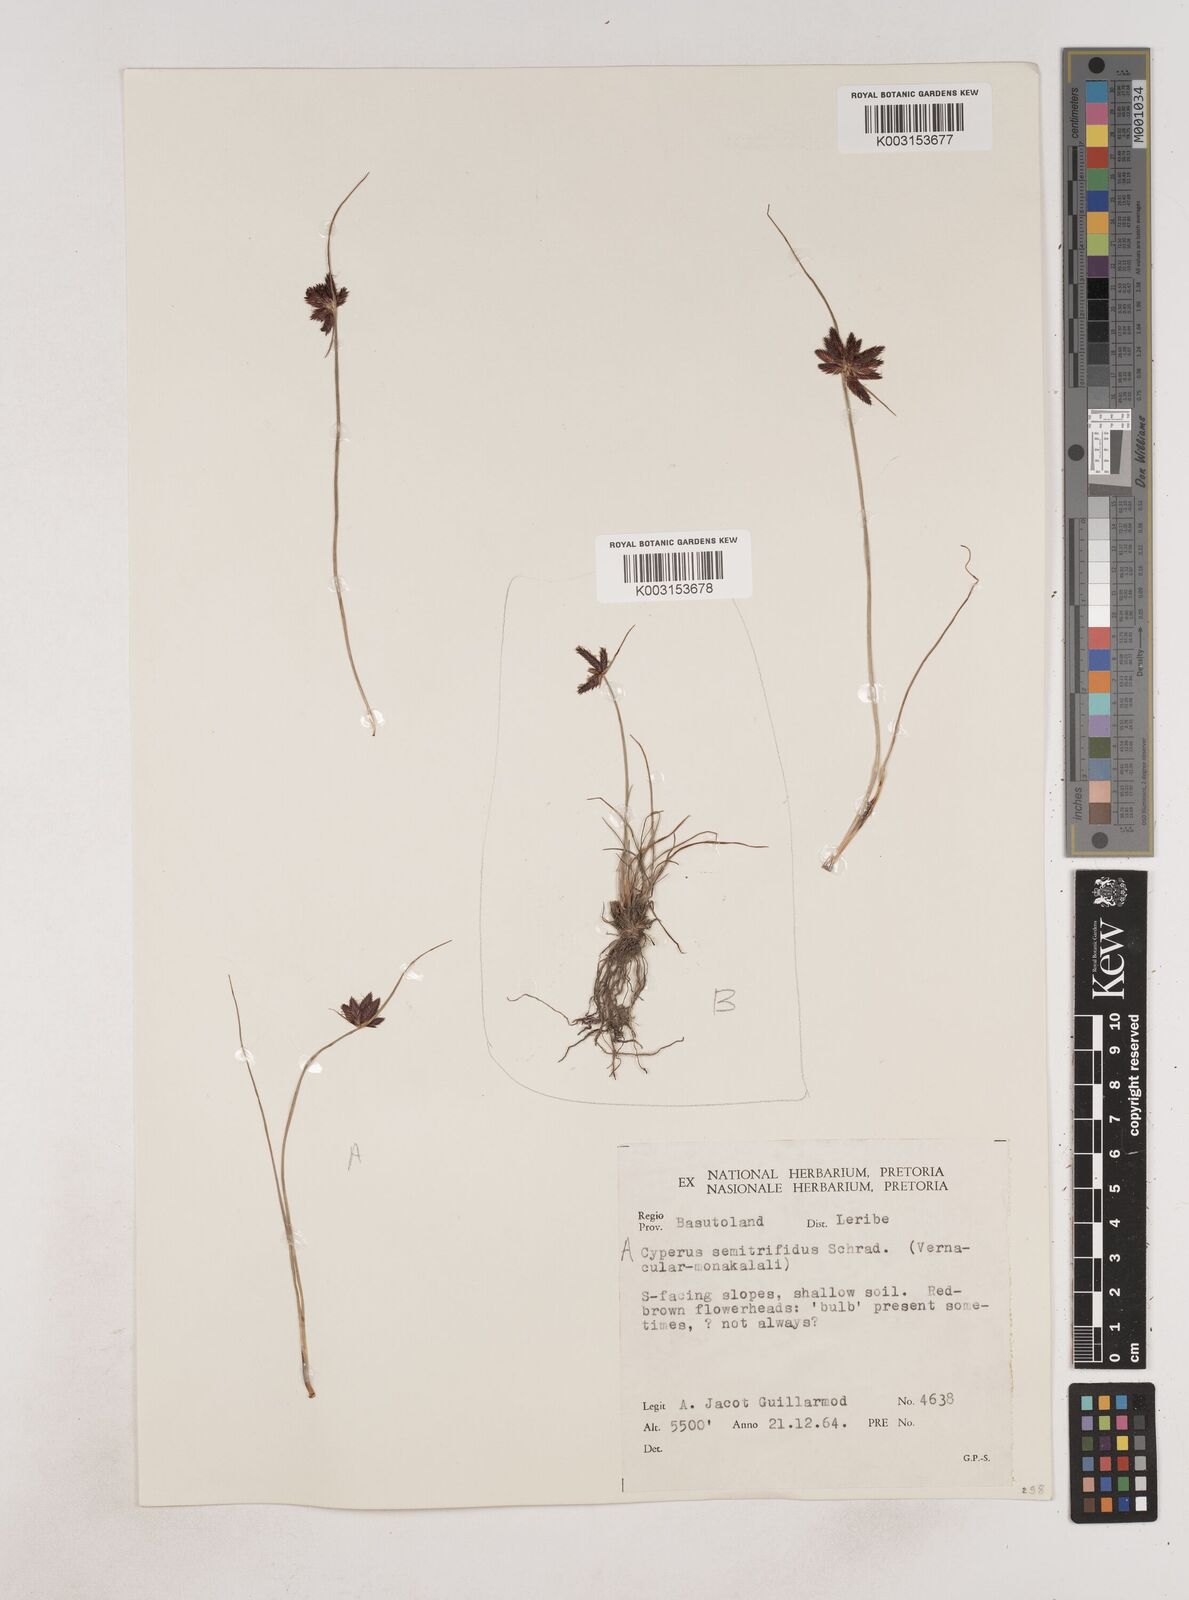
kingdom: Plantae
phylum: Tracheophyta
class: Liliopsida
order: Poales
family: Cyperaceae
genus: Cyperus
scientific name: Cyperus semitrifidus
